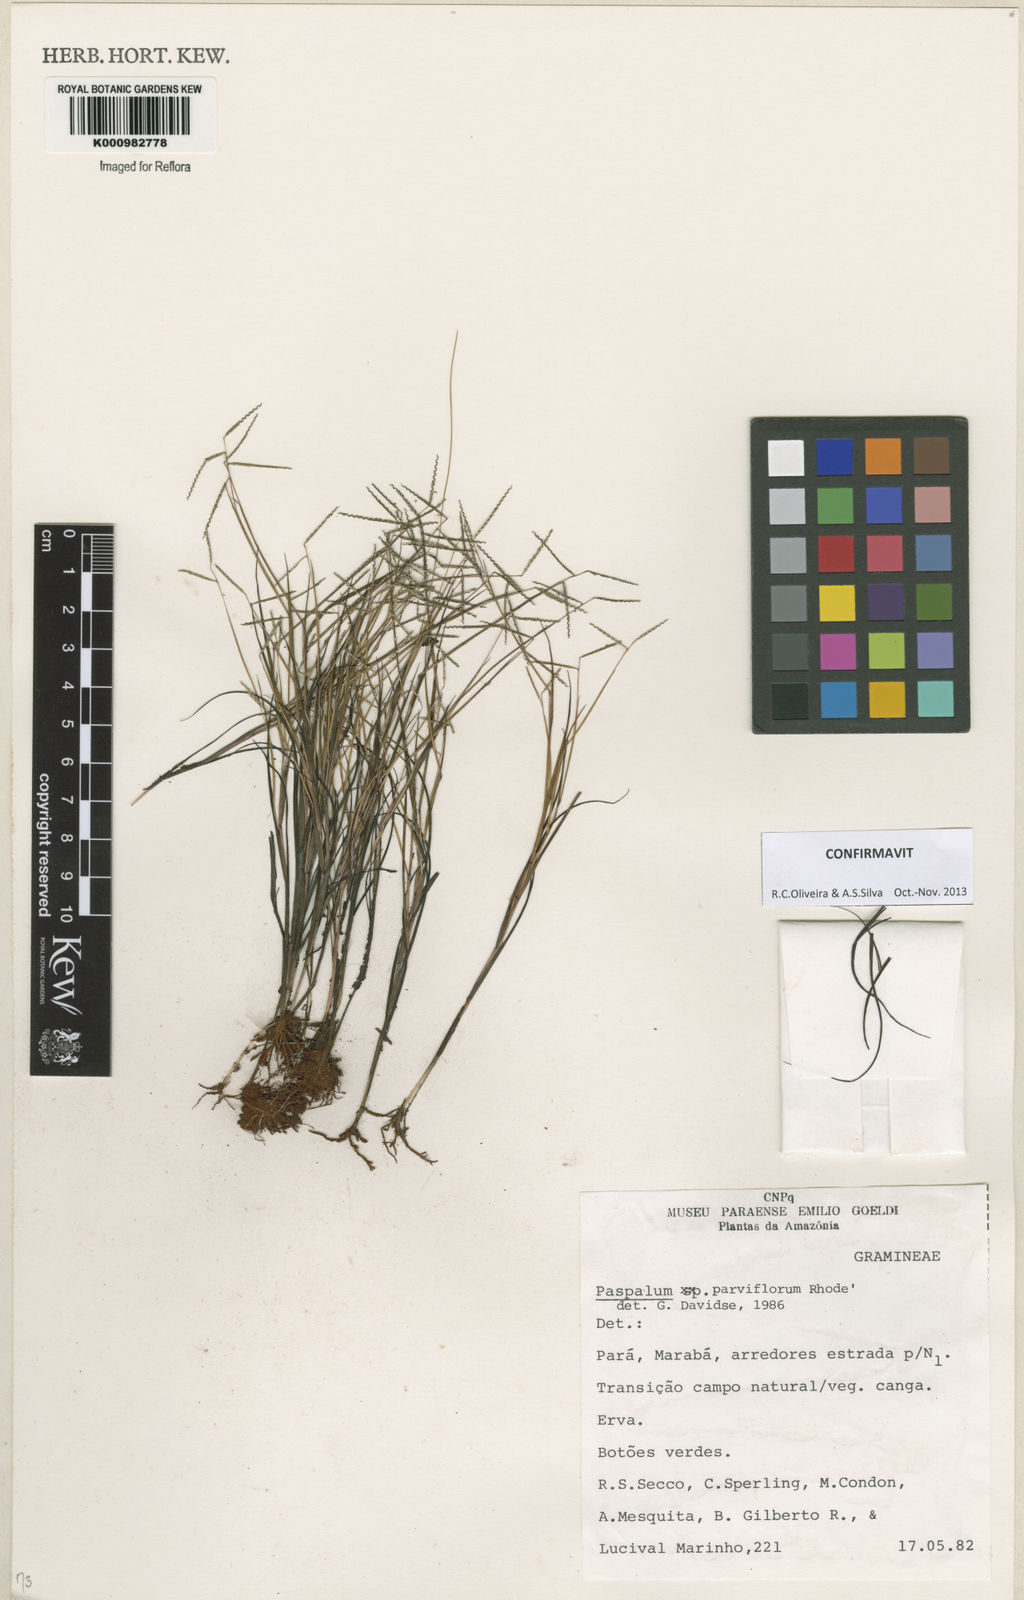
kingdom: Plantae
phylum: Tracheophyta
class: Liliopsida
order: Poales
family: Poaceae
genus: Paspalum
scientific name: Paspalum
